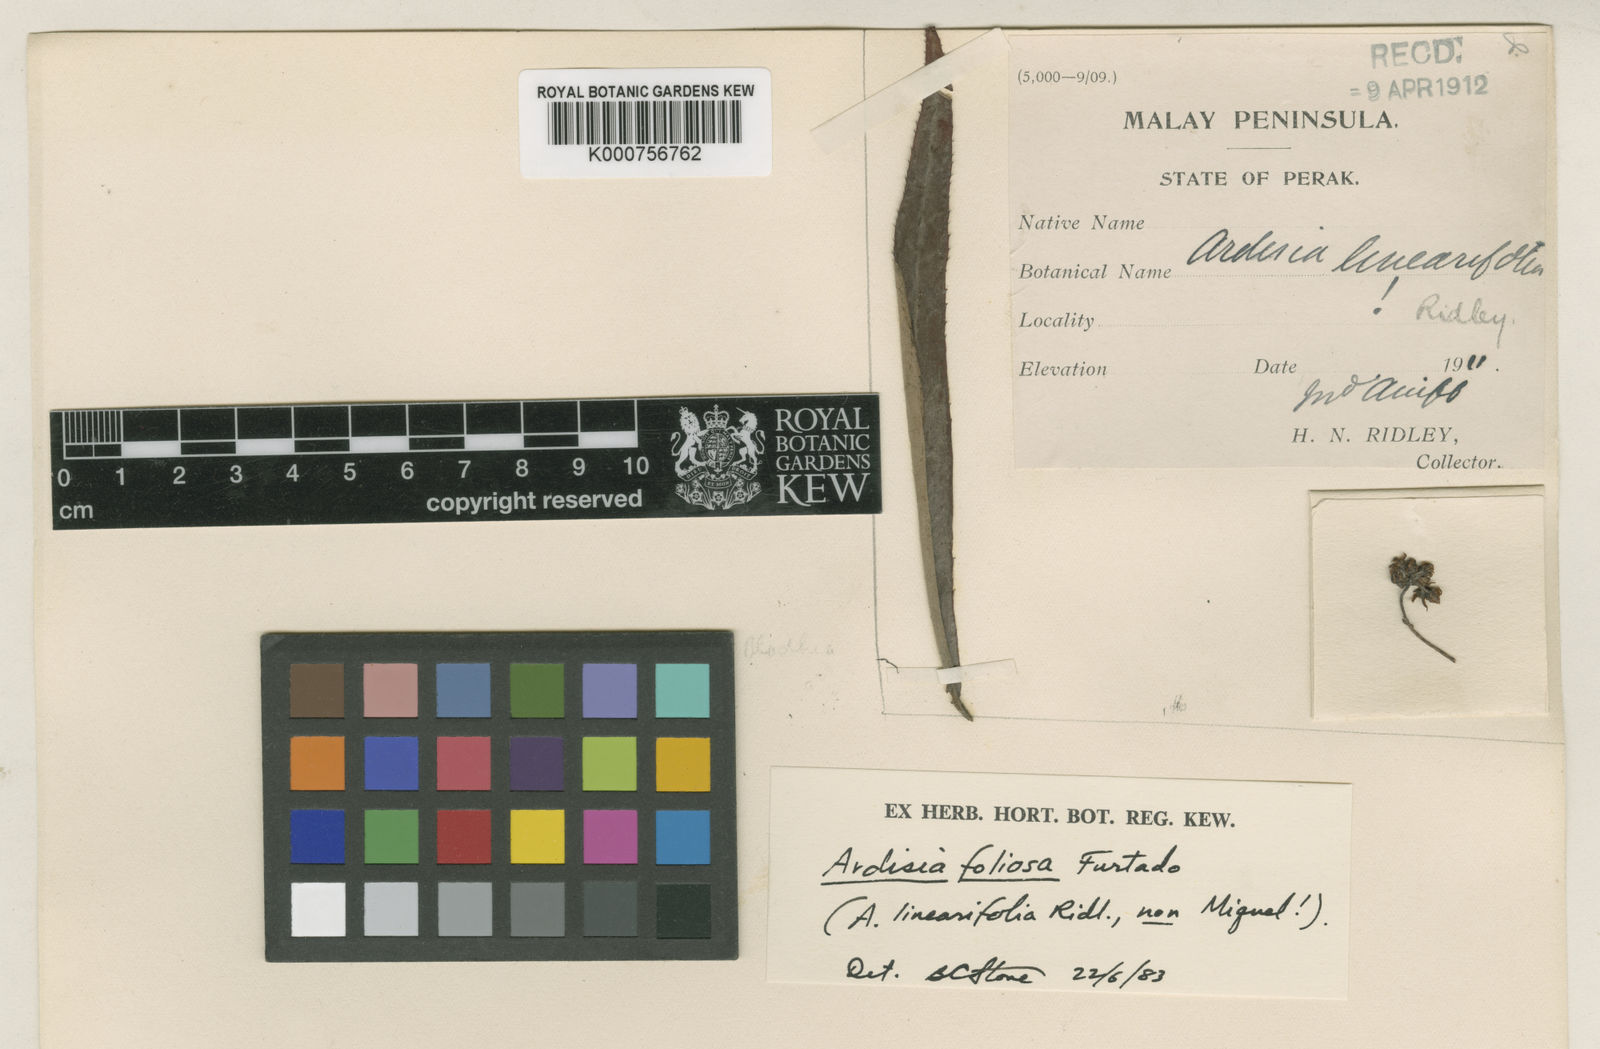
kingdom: Plantae
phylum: Tracheophyta
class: Magnoliopsida
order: Ericales
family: Primulaceae
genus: Ardisia
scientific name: Ardisia foliosa
